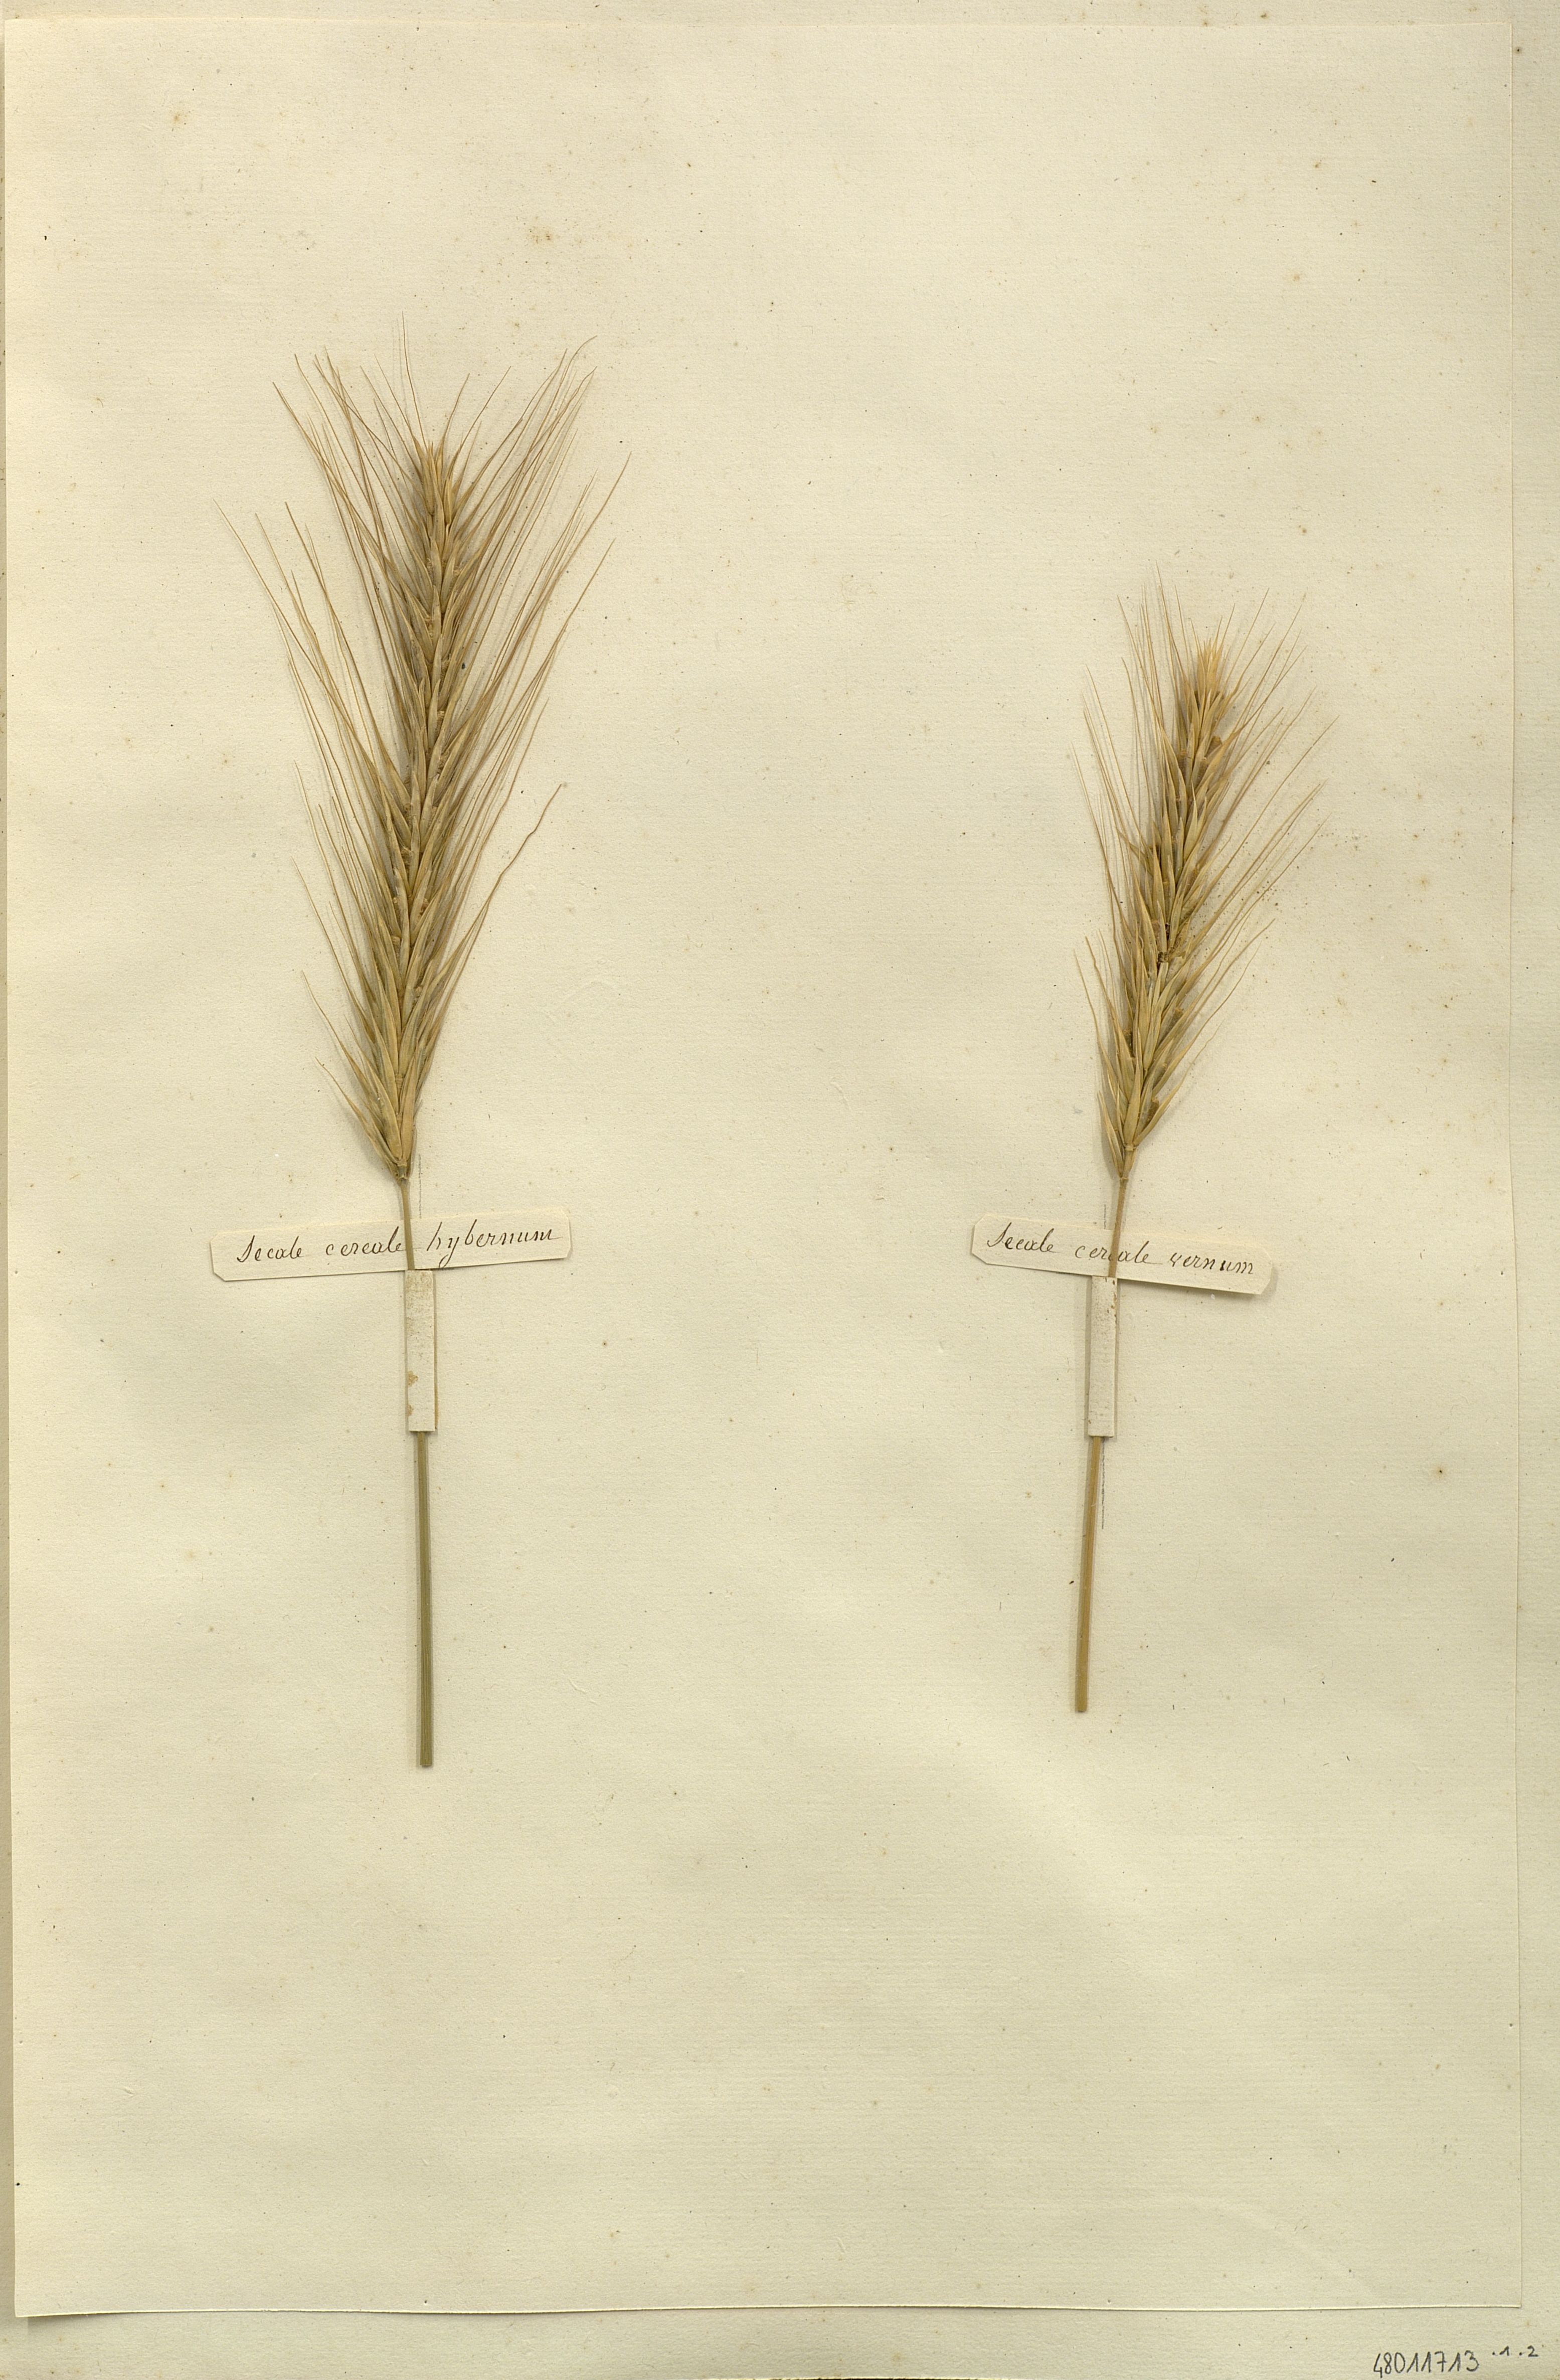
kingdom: Plantae
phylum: Tracheophyta
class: Liliopsida
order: Poales
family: Poaceae
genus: Secale
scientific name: Secale cereale
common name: Rye
